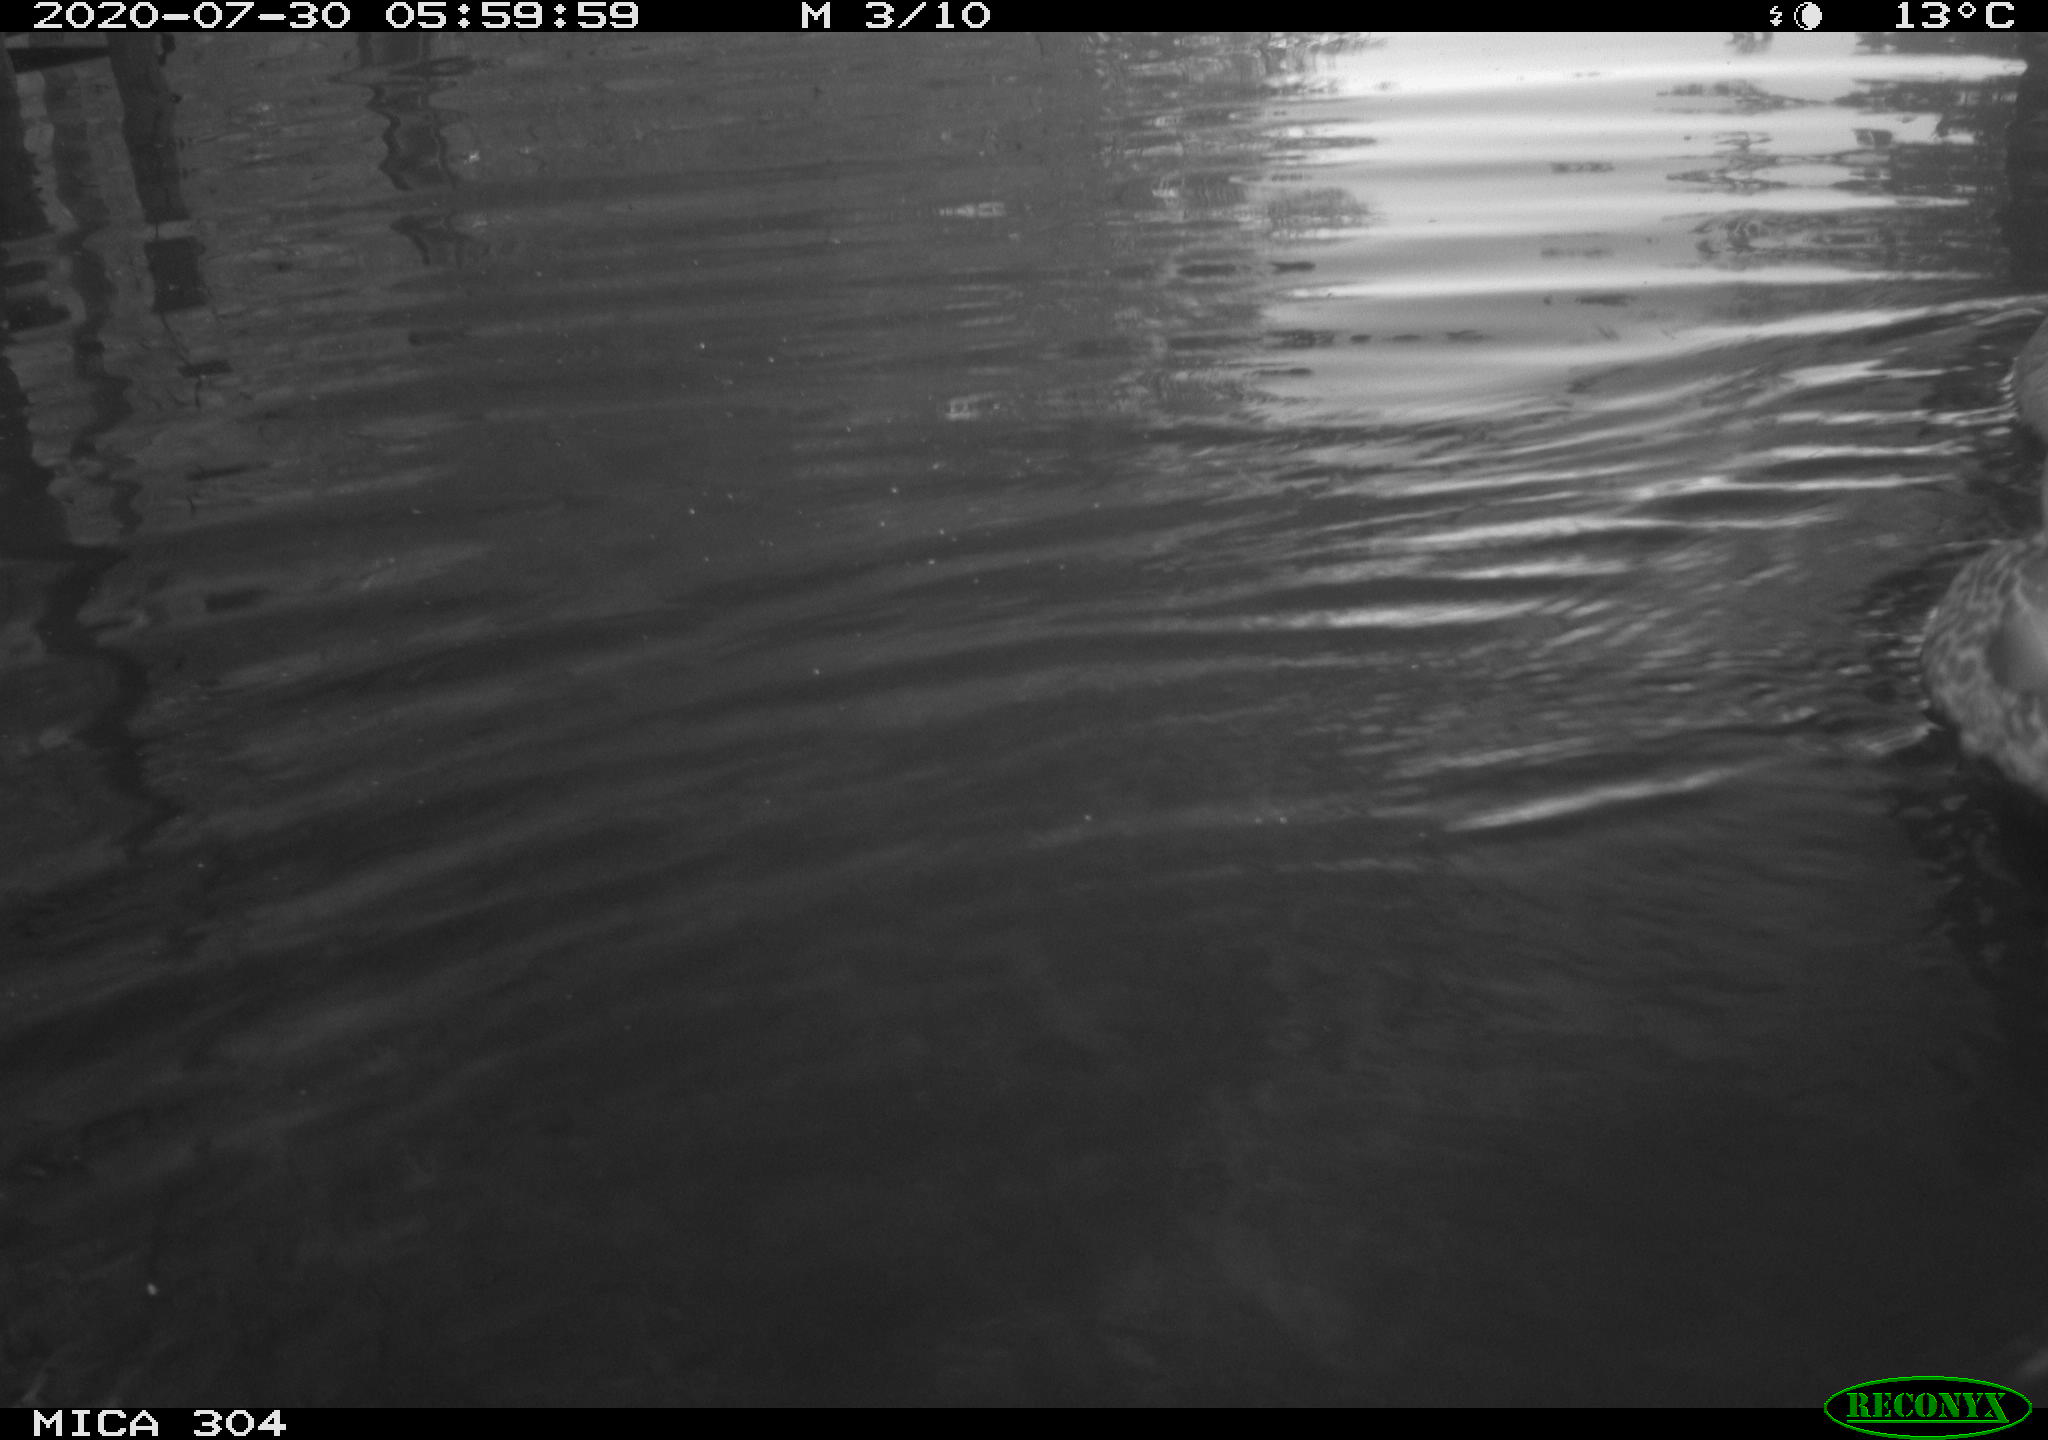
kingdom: Animalia
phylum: Chordata
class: Aves
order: Anseriformes
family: Anatidae
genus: Anas
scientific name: Anas platyrhynchos
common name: Mallard
